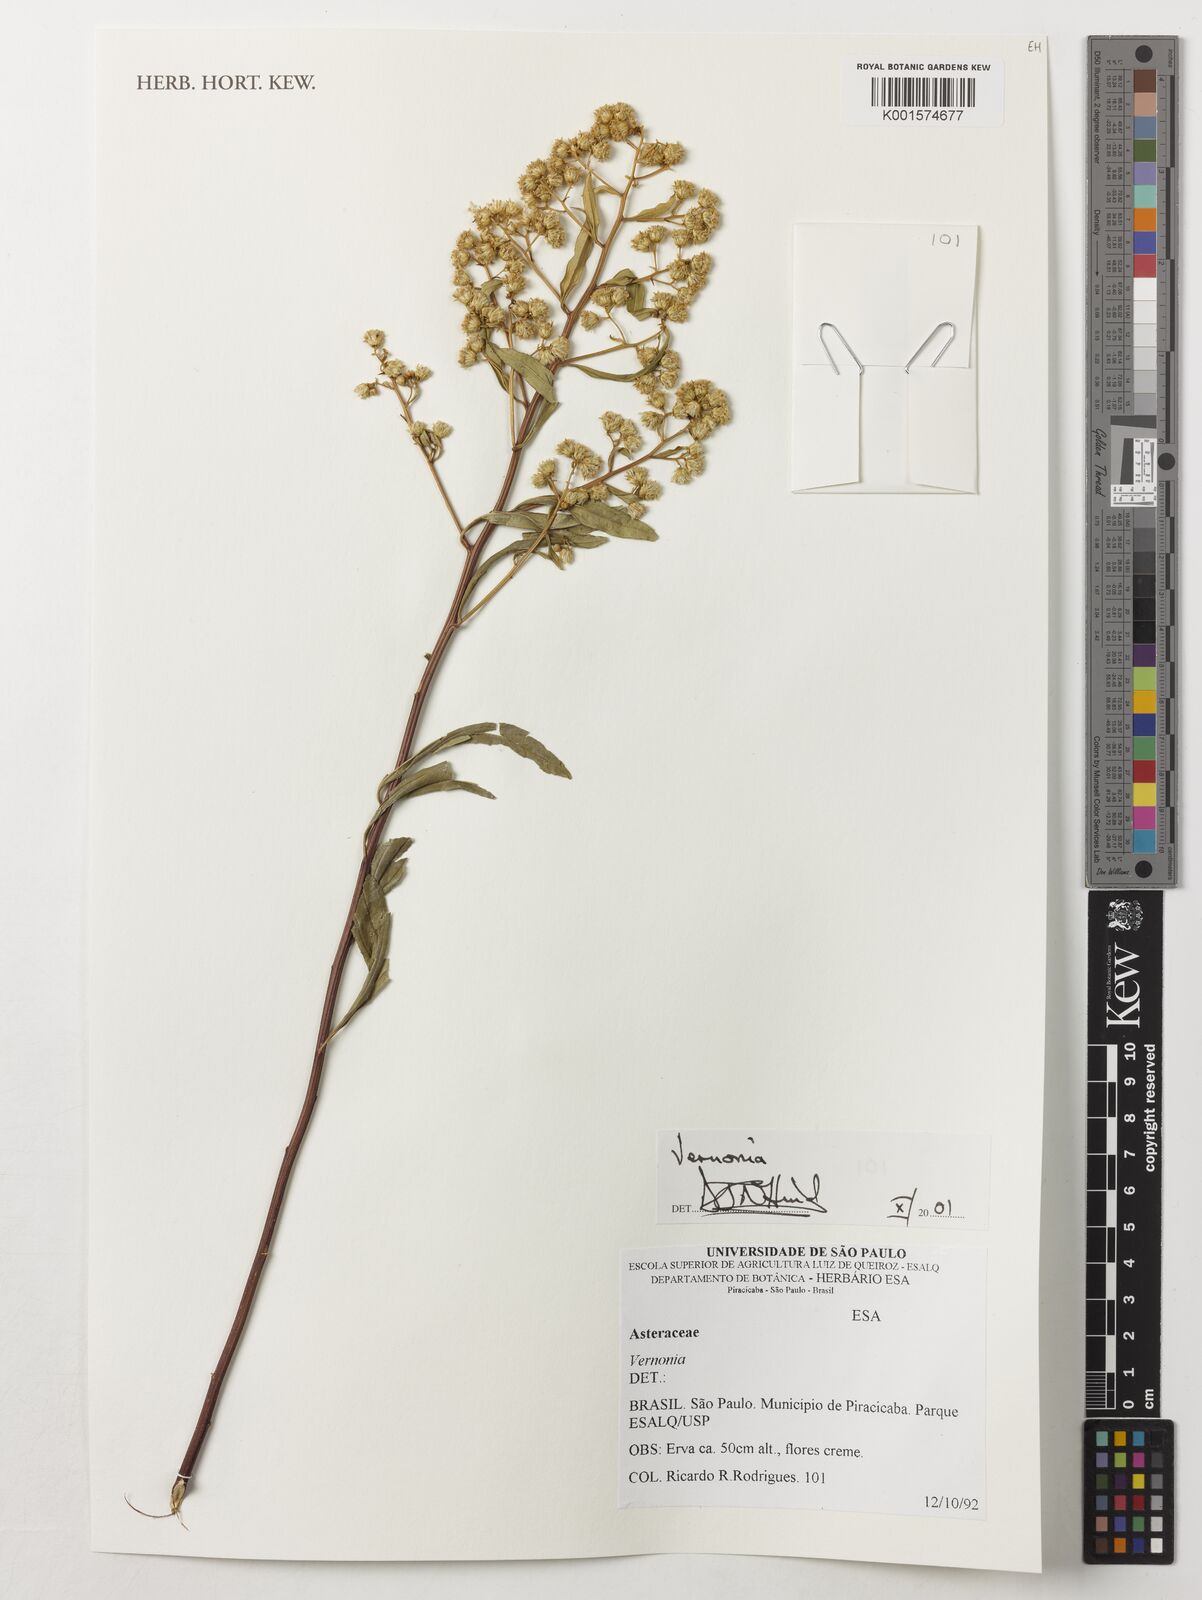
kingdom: Plantae
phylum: Tracheophyta
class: Magnoliopsida
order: Asterales
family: Asteraceae
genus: Vernonia
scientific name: Vernonia
